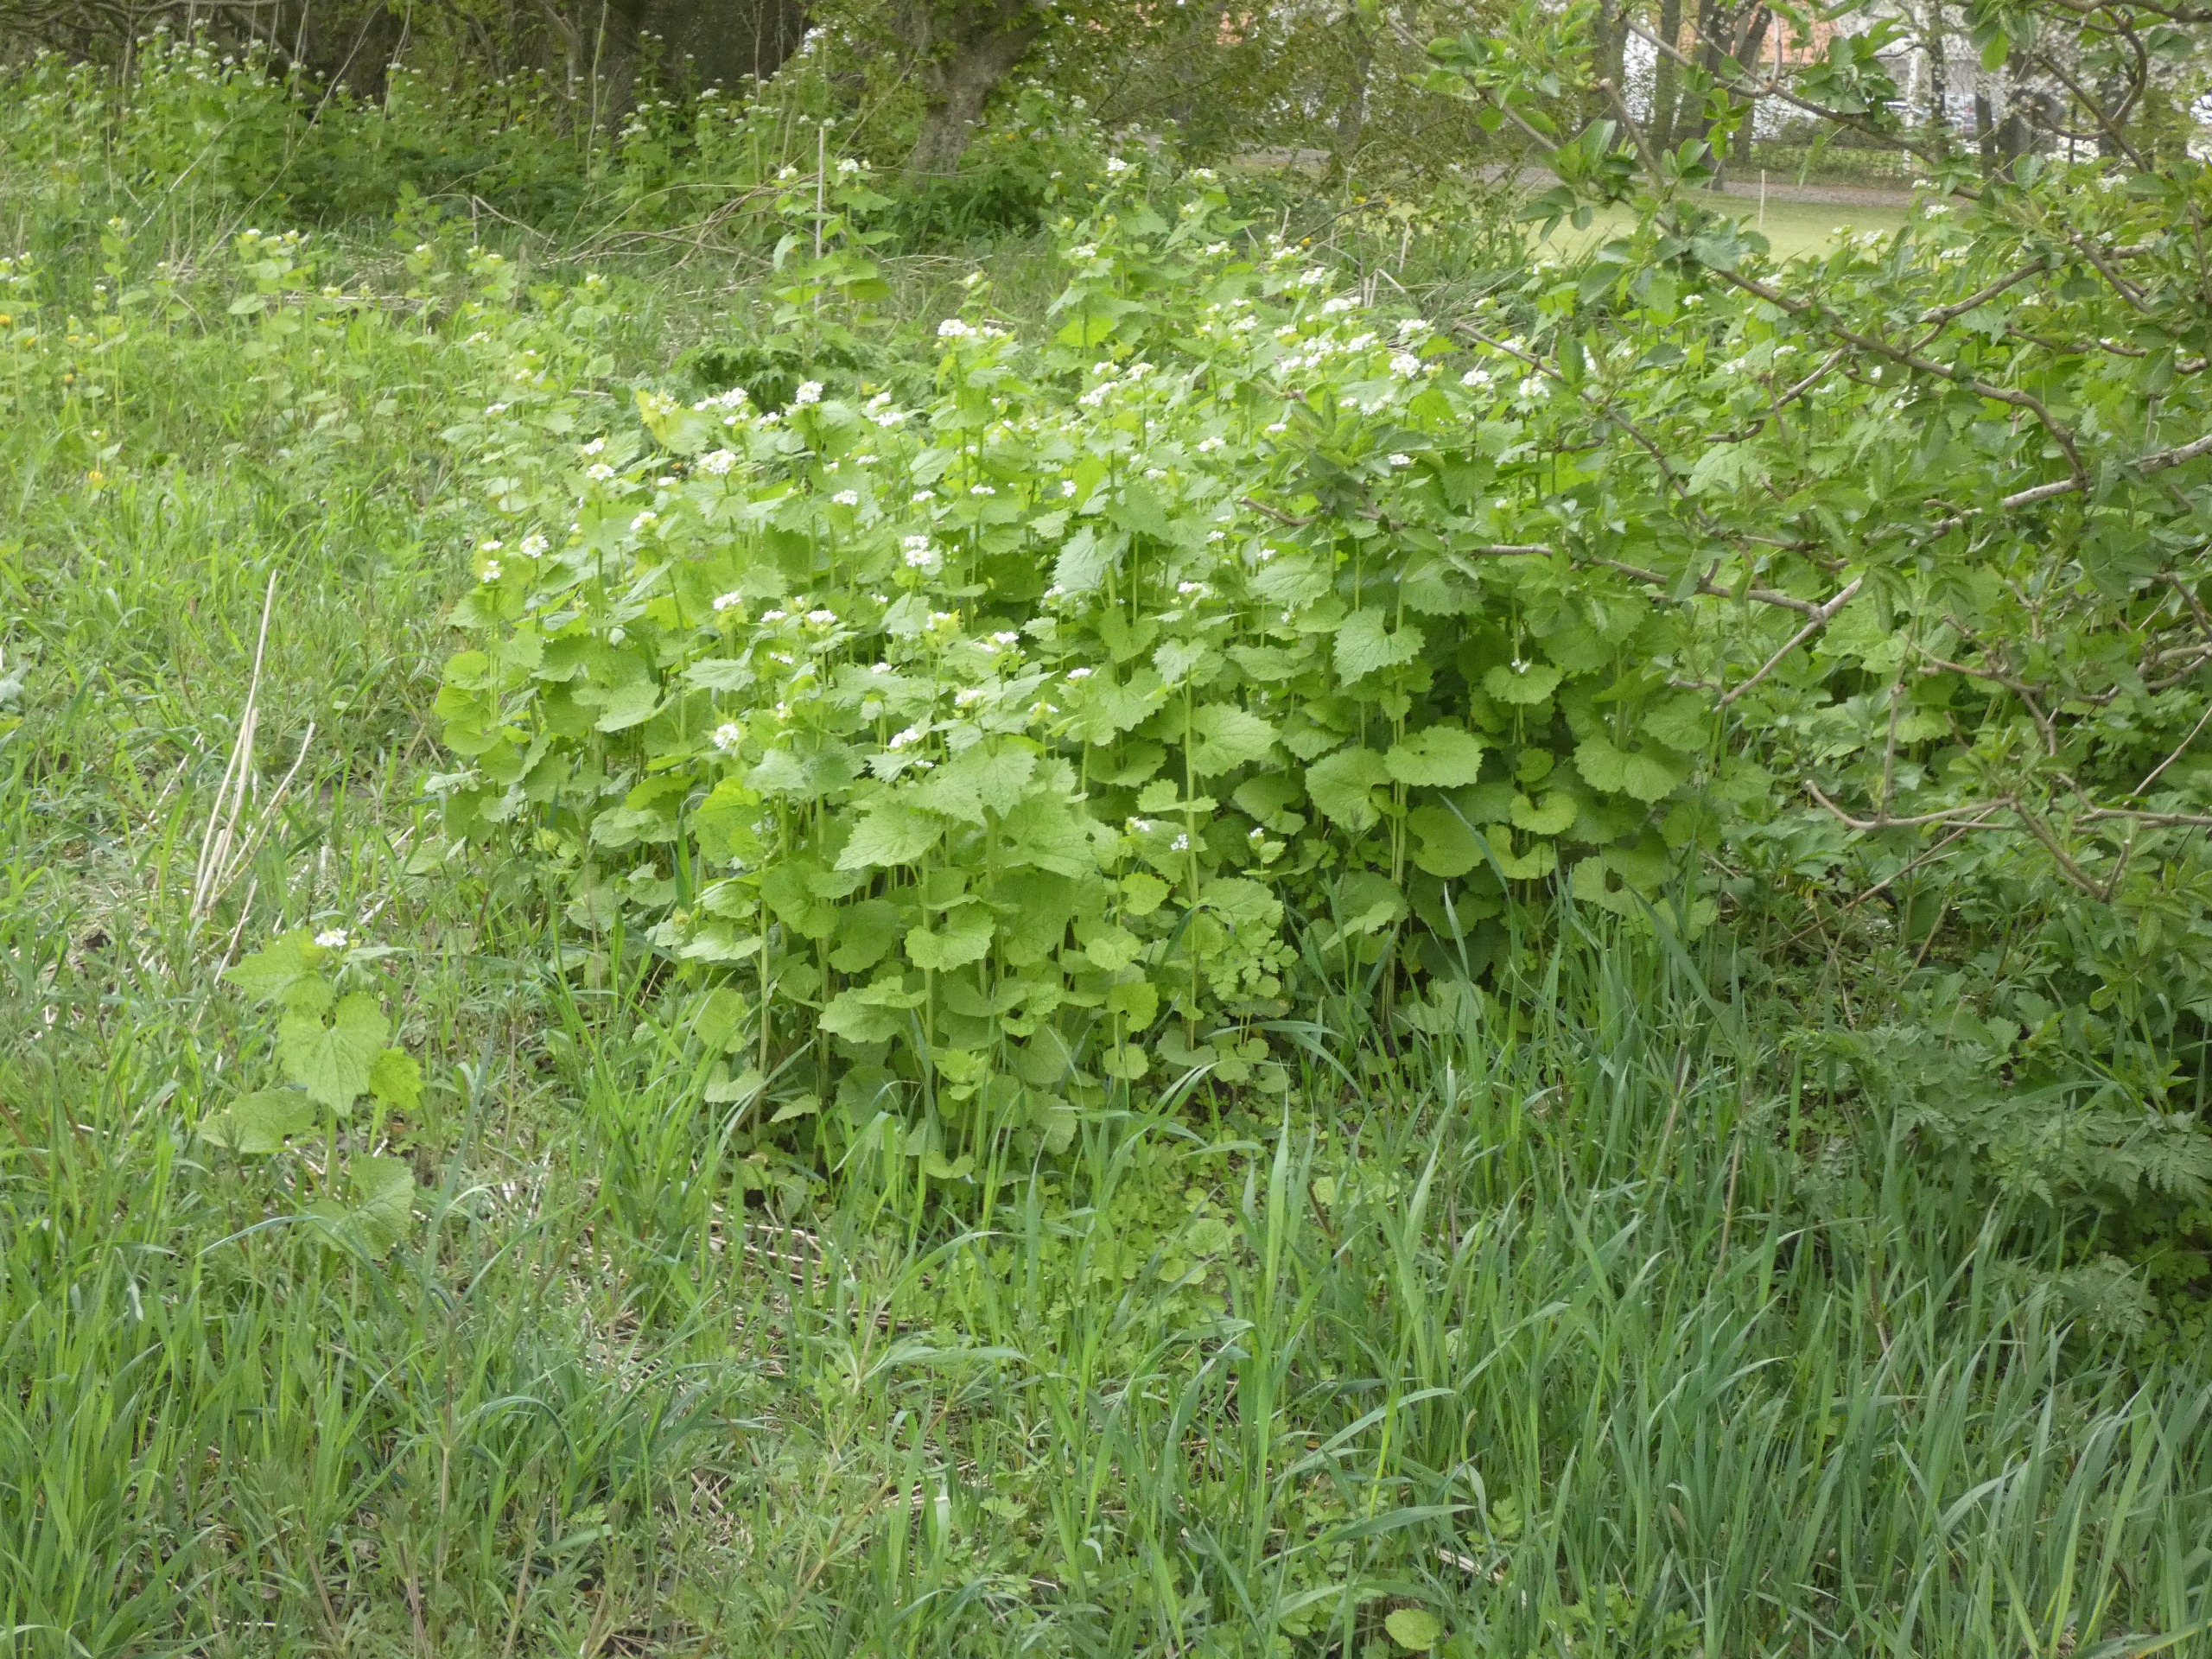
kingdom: Plantae
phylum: Tracheophyta
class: Magnoliopsida
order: Brassicales
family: Brassicaceae
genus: Alliaria
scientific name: Alliaria petiolata
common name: Løgkarse
